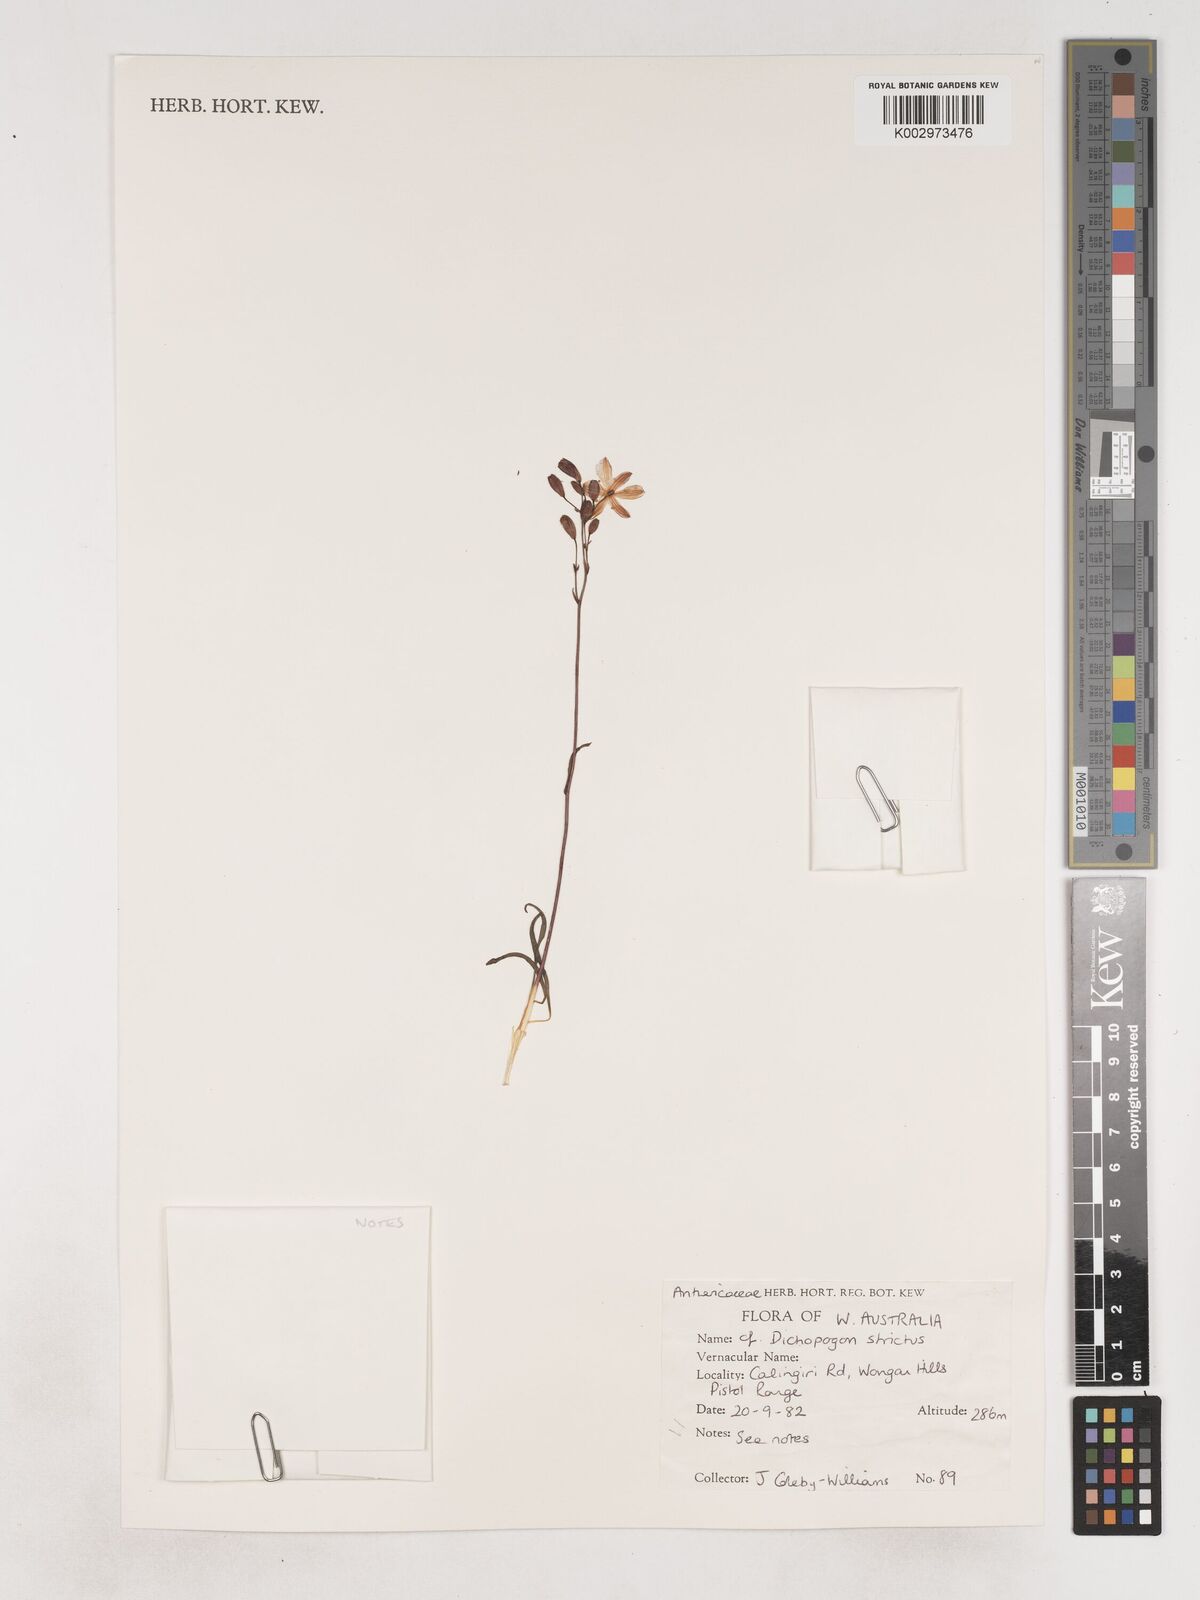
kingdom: Plantae
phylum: Tracheophyta
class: Liliopsida
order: Asparagales
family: Asparagaceae
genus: Arthropodium
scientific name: Arthropodium strictum
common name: Chocolate-lily
